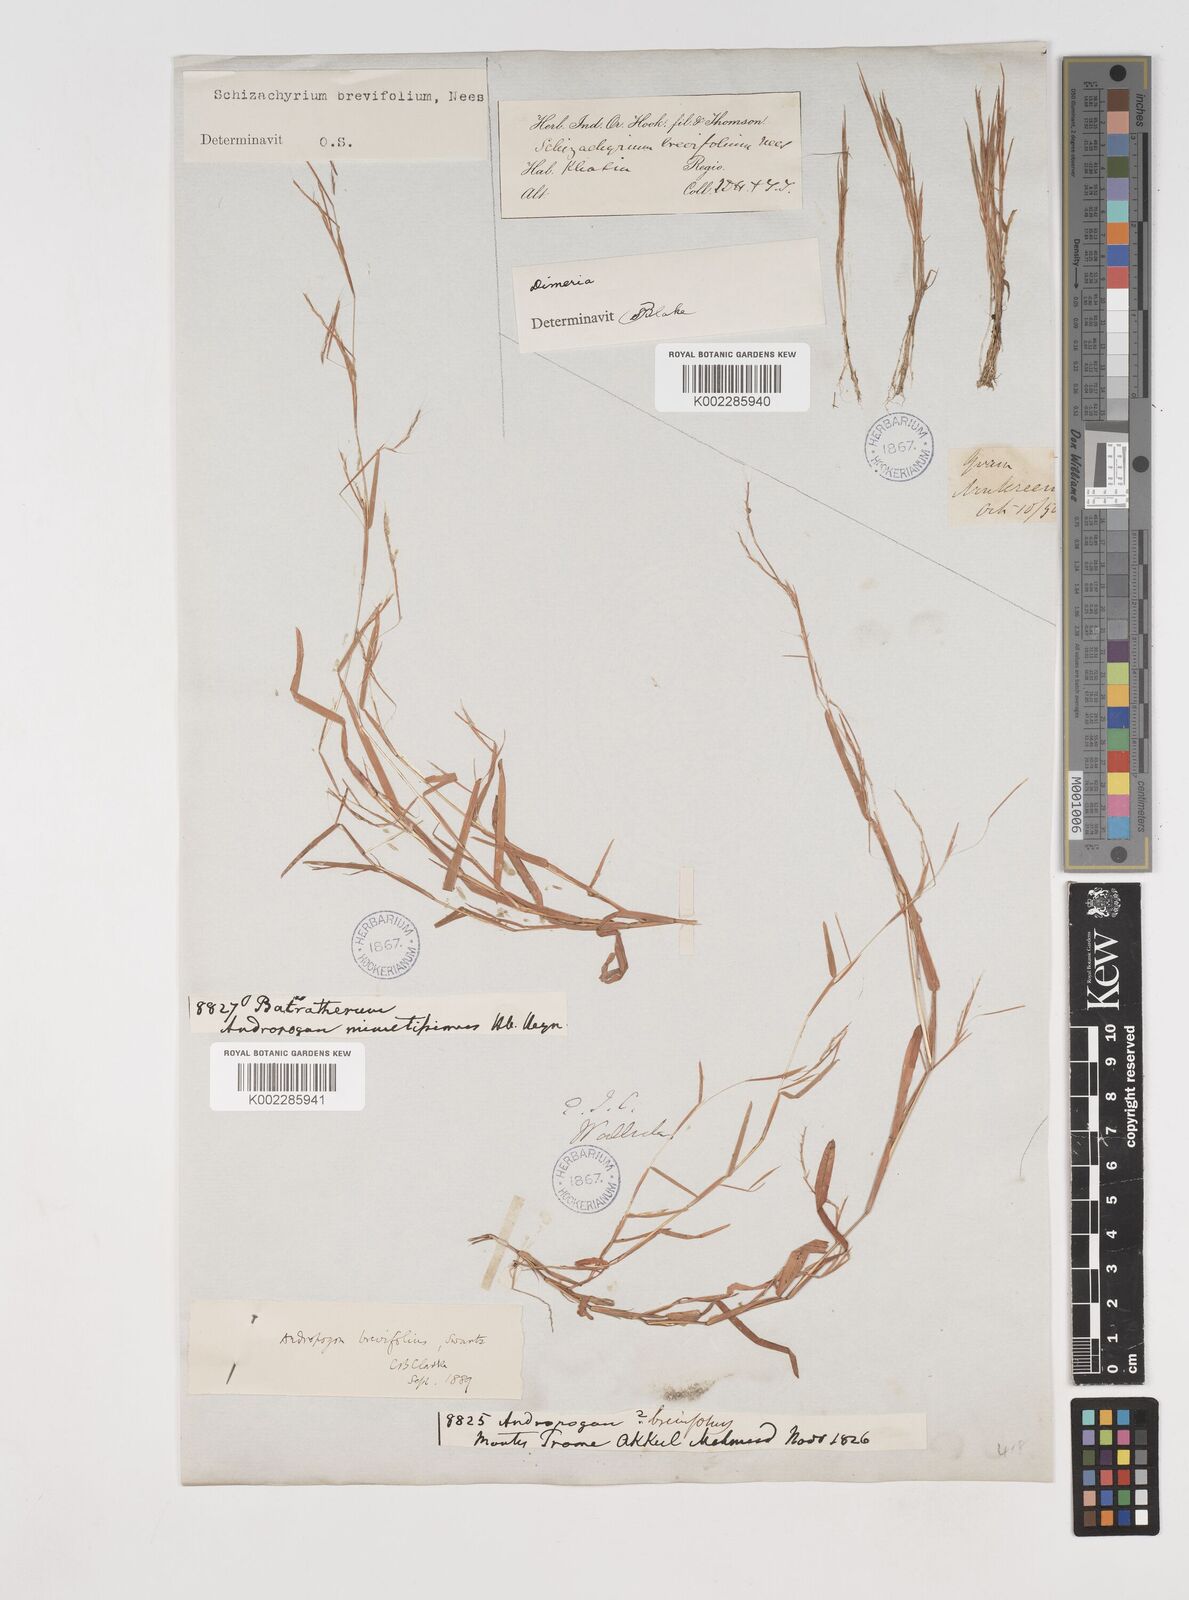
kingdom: Plantae
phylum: Tracheophyta
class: Liliopsida
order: Poales
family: Poaceae
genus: Schizachyrium
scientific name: Schizachyrium brevifolium
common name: Serillo dulce
